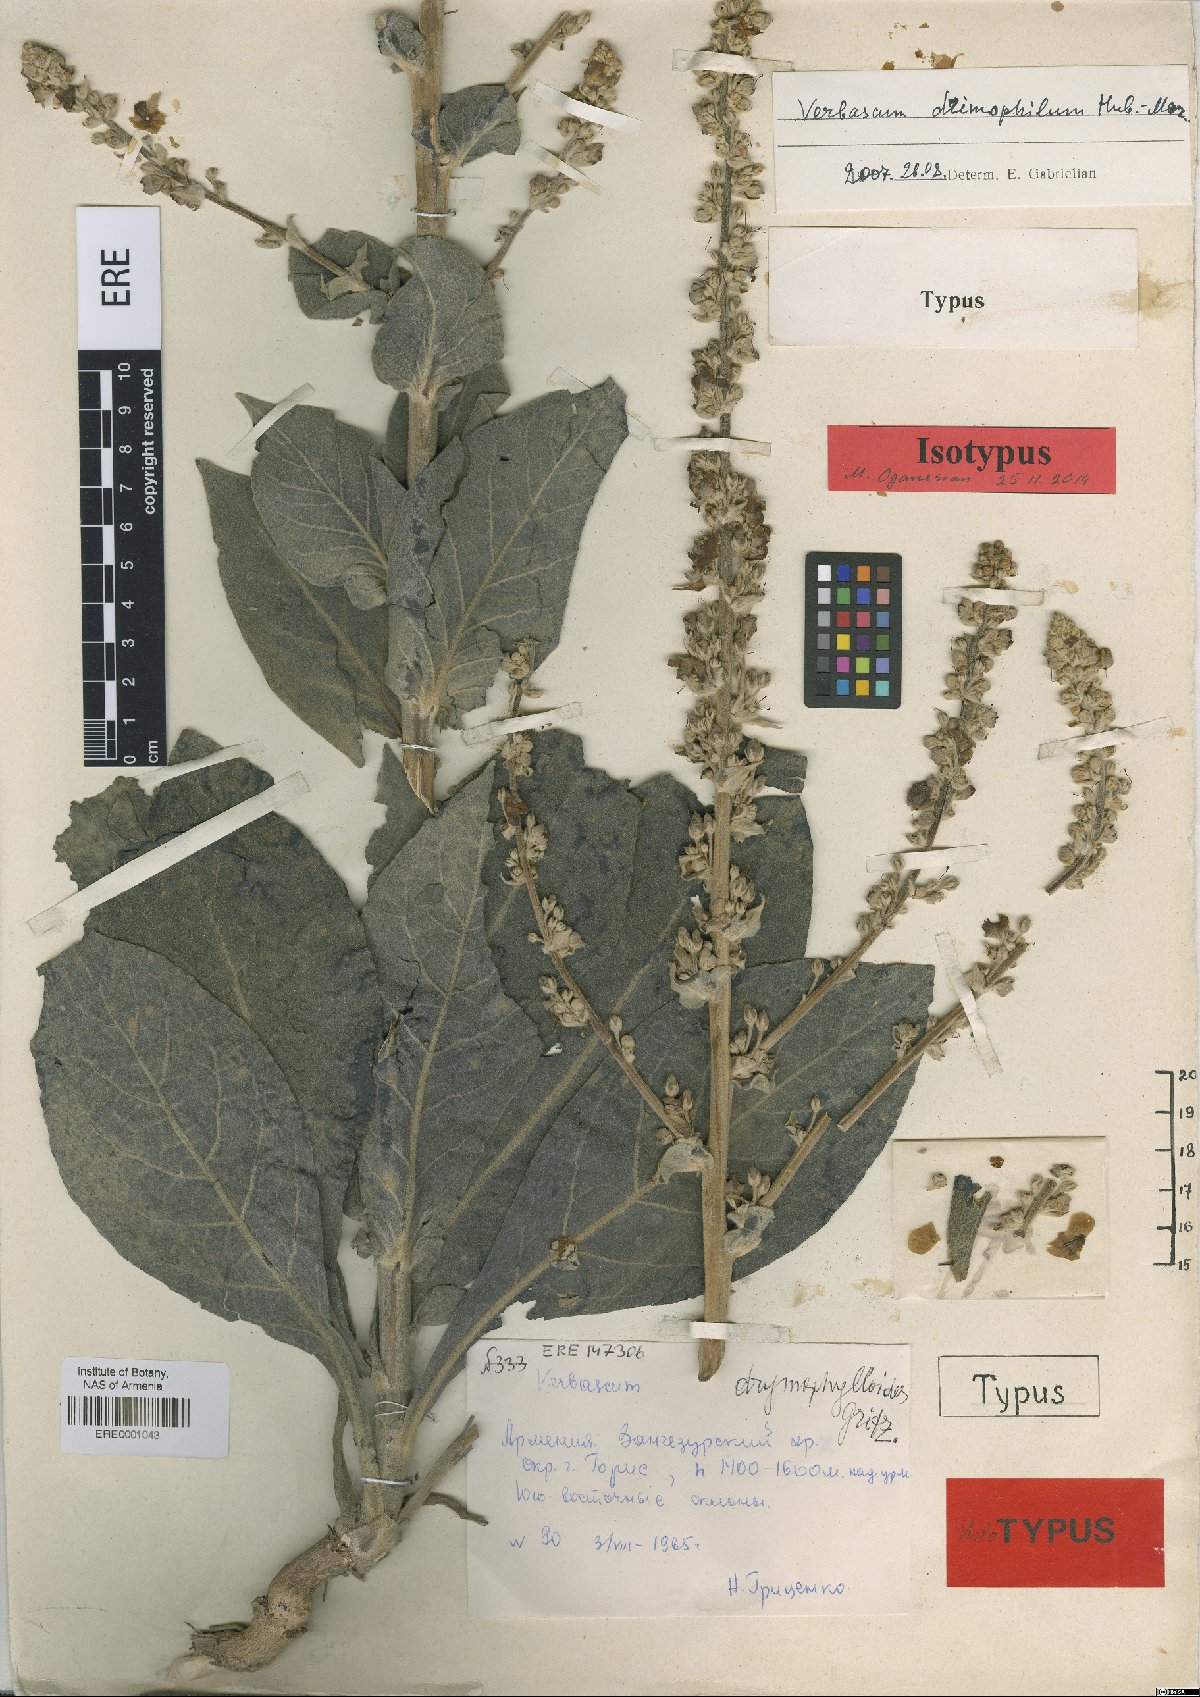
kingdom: Plantae
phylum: Tracheophyta
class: Magnoliopsida
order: Lamiales
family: Scrophulariaceae
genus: Verbascum
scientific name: Verbascum drymophyloides
